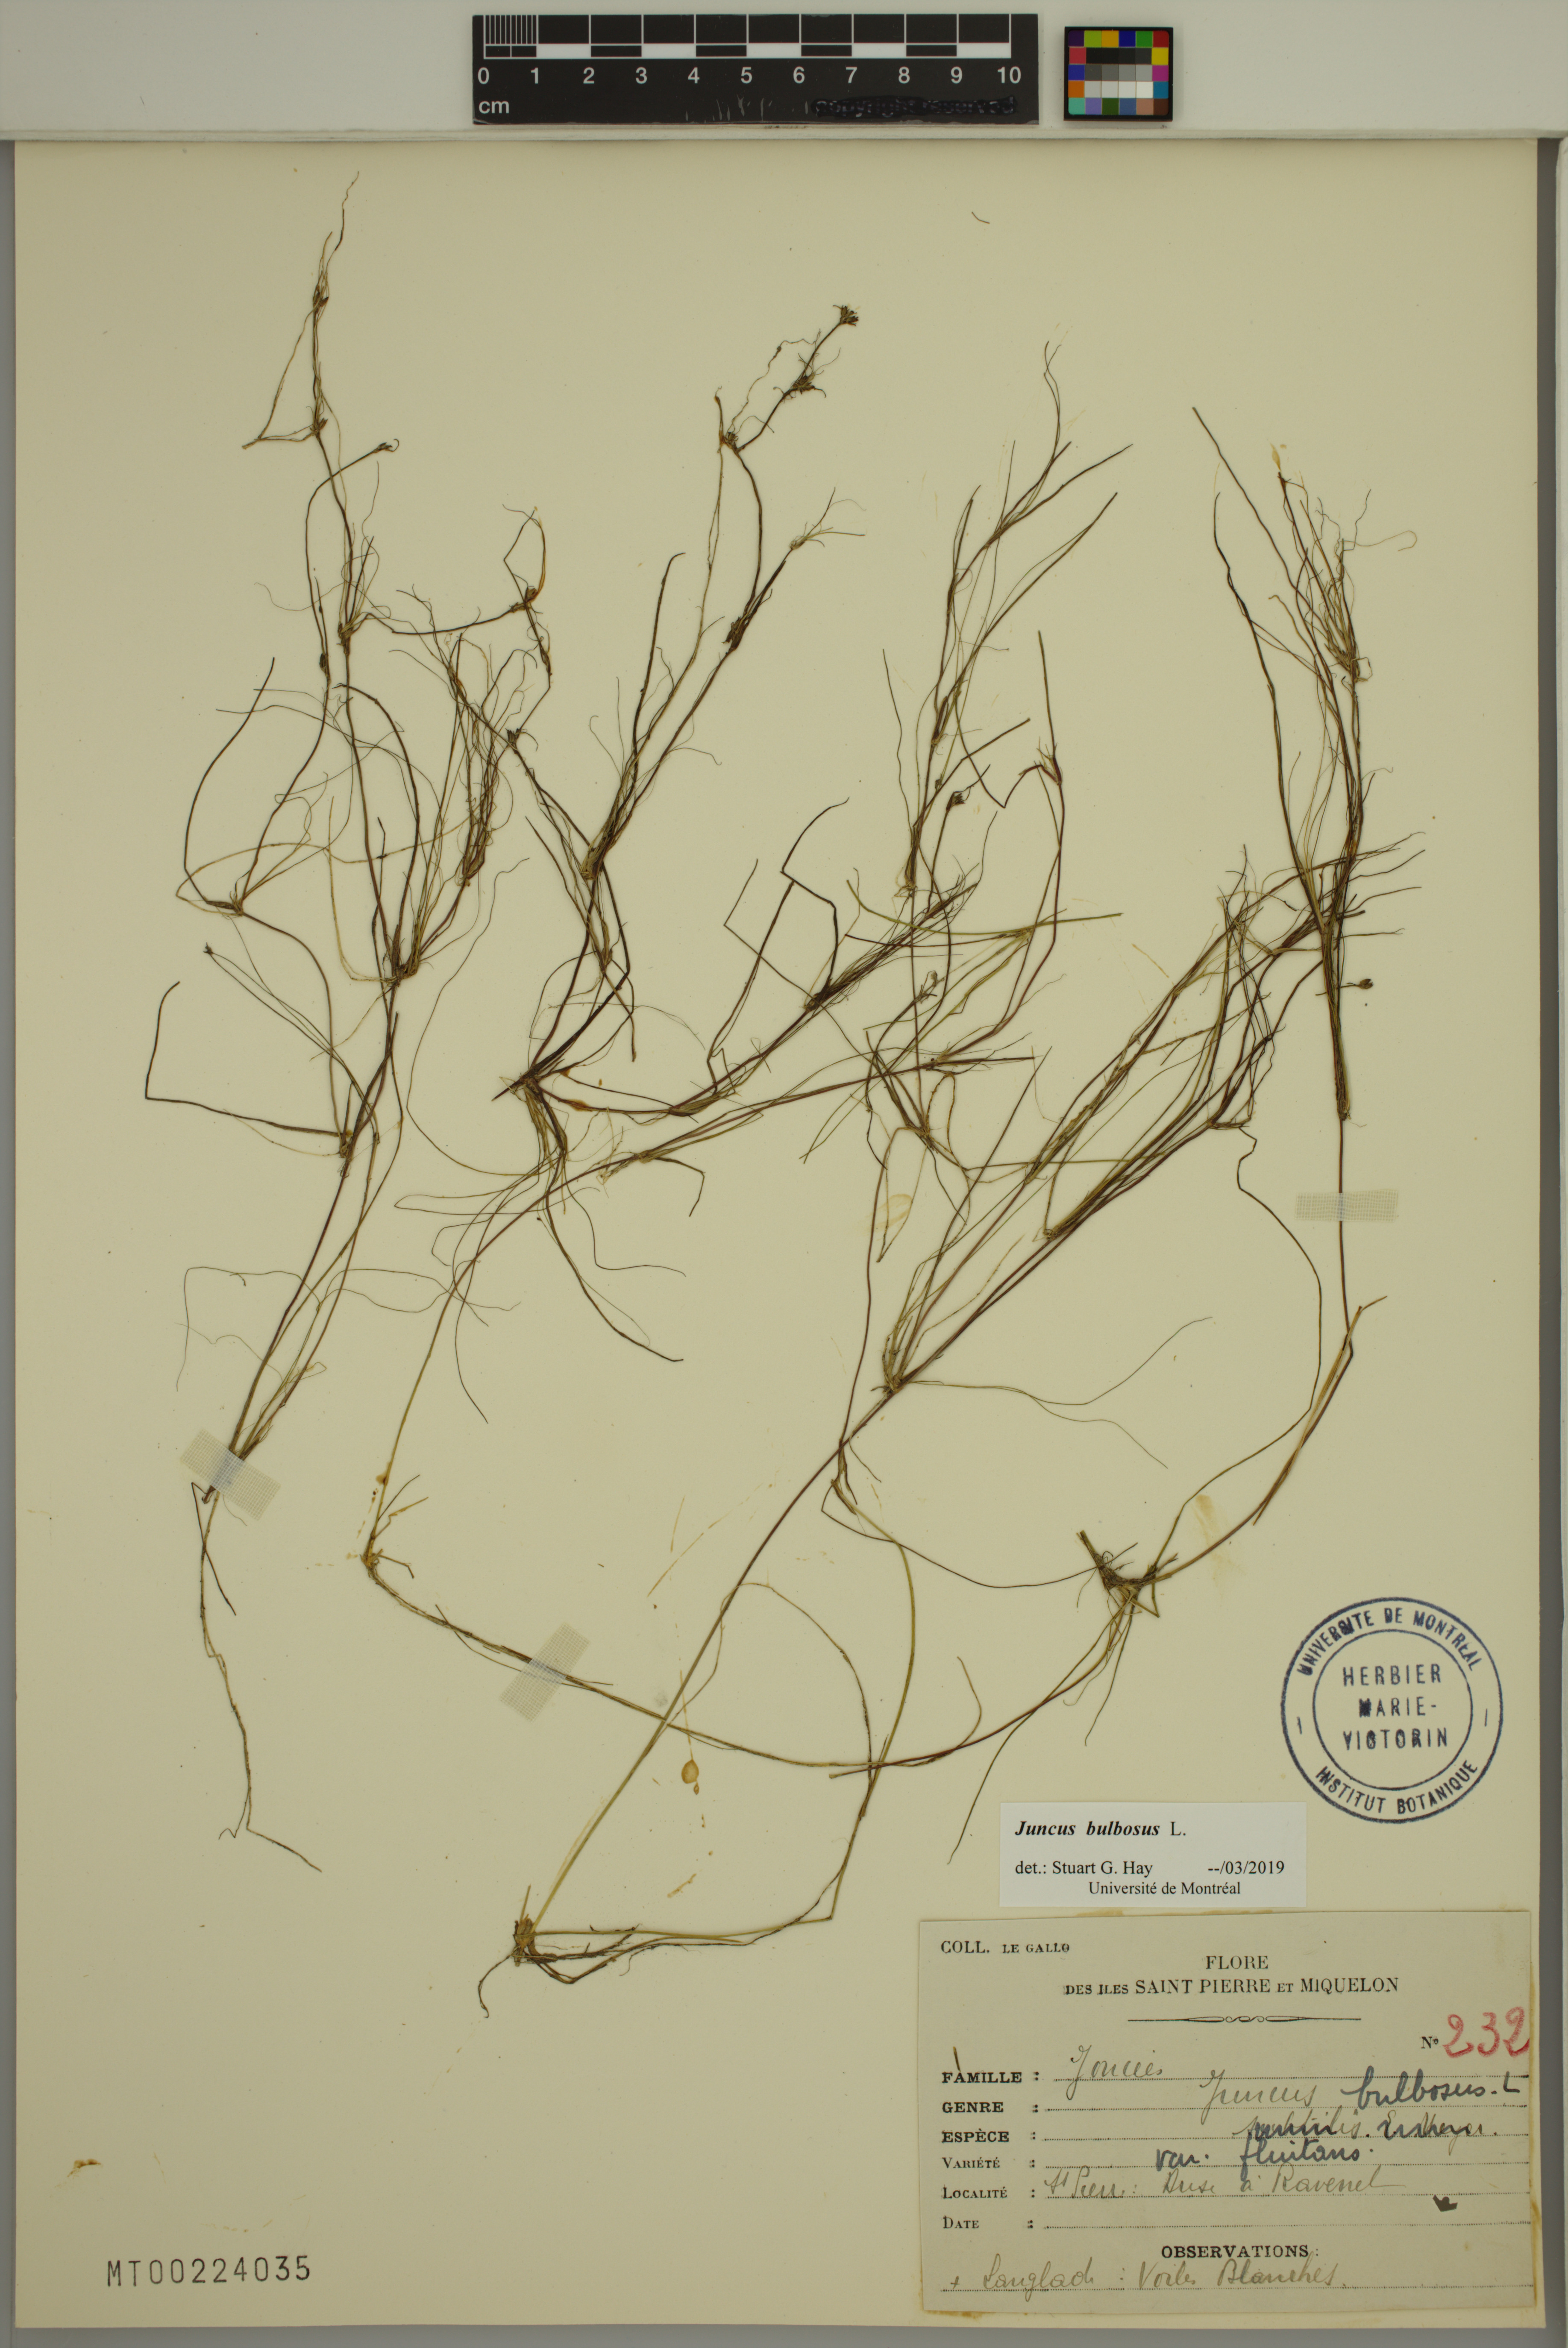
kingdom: Plantae
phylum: Tracheophyta
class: Liliopsida
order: Poales
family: Juncaceae
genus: Juncus
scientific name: Juncus bulbosus
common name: Bulbous rush
